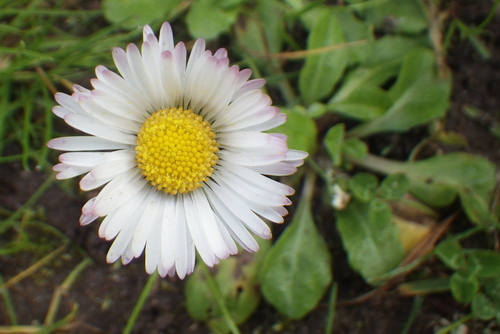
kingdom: Plantae
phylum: Tracheophyta
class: Magnoliopsida
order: Asterales
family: Asteraceae
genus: Bellis
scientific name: Bellis perennis
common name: Lawndaisy
